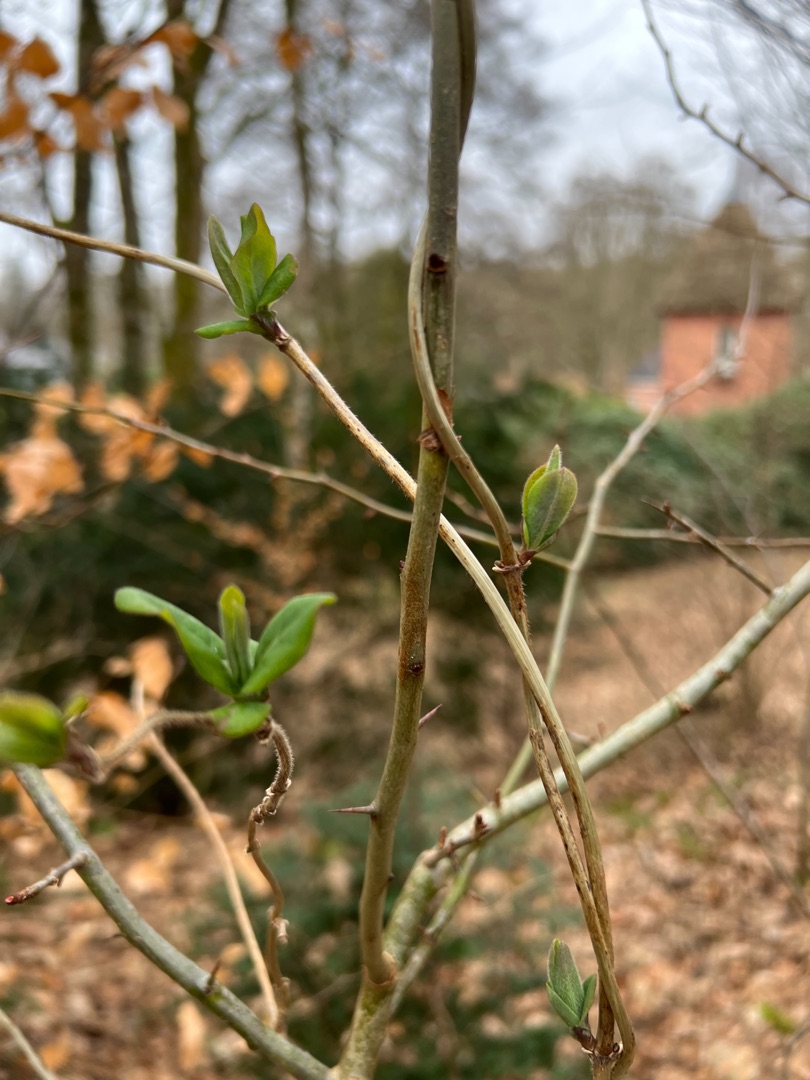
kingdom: Plantae
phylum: Tracheophyta
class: Magnoliopsida
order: Dipsacales
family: Caprifoliaceae
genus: Lonicera
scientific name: Lonicera periclymenum
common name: Almindelig gedeblad
